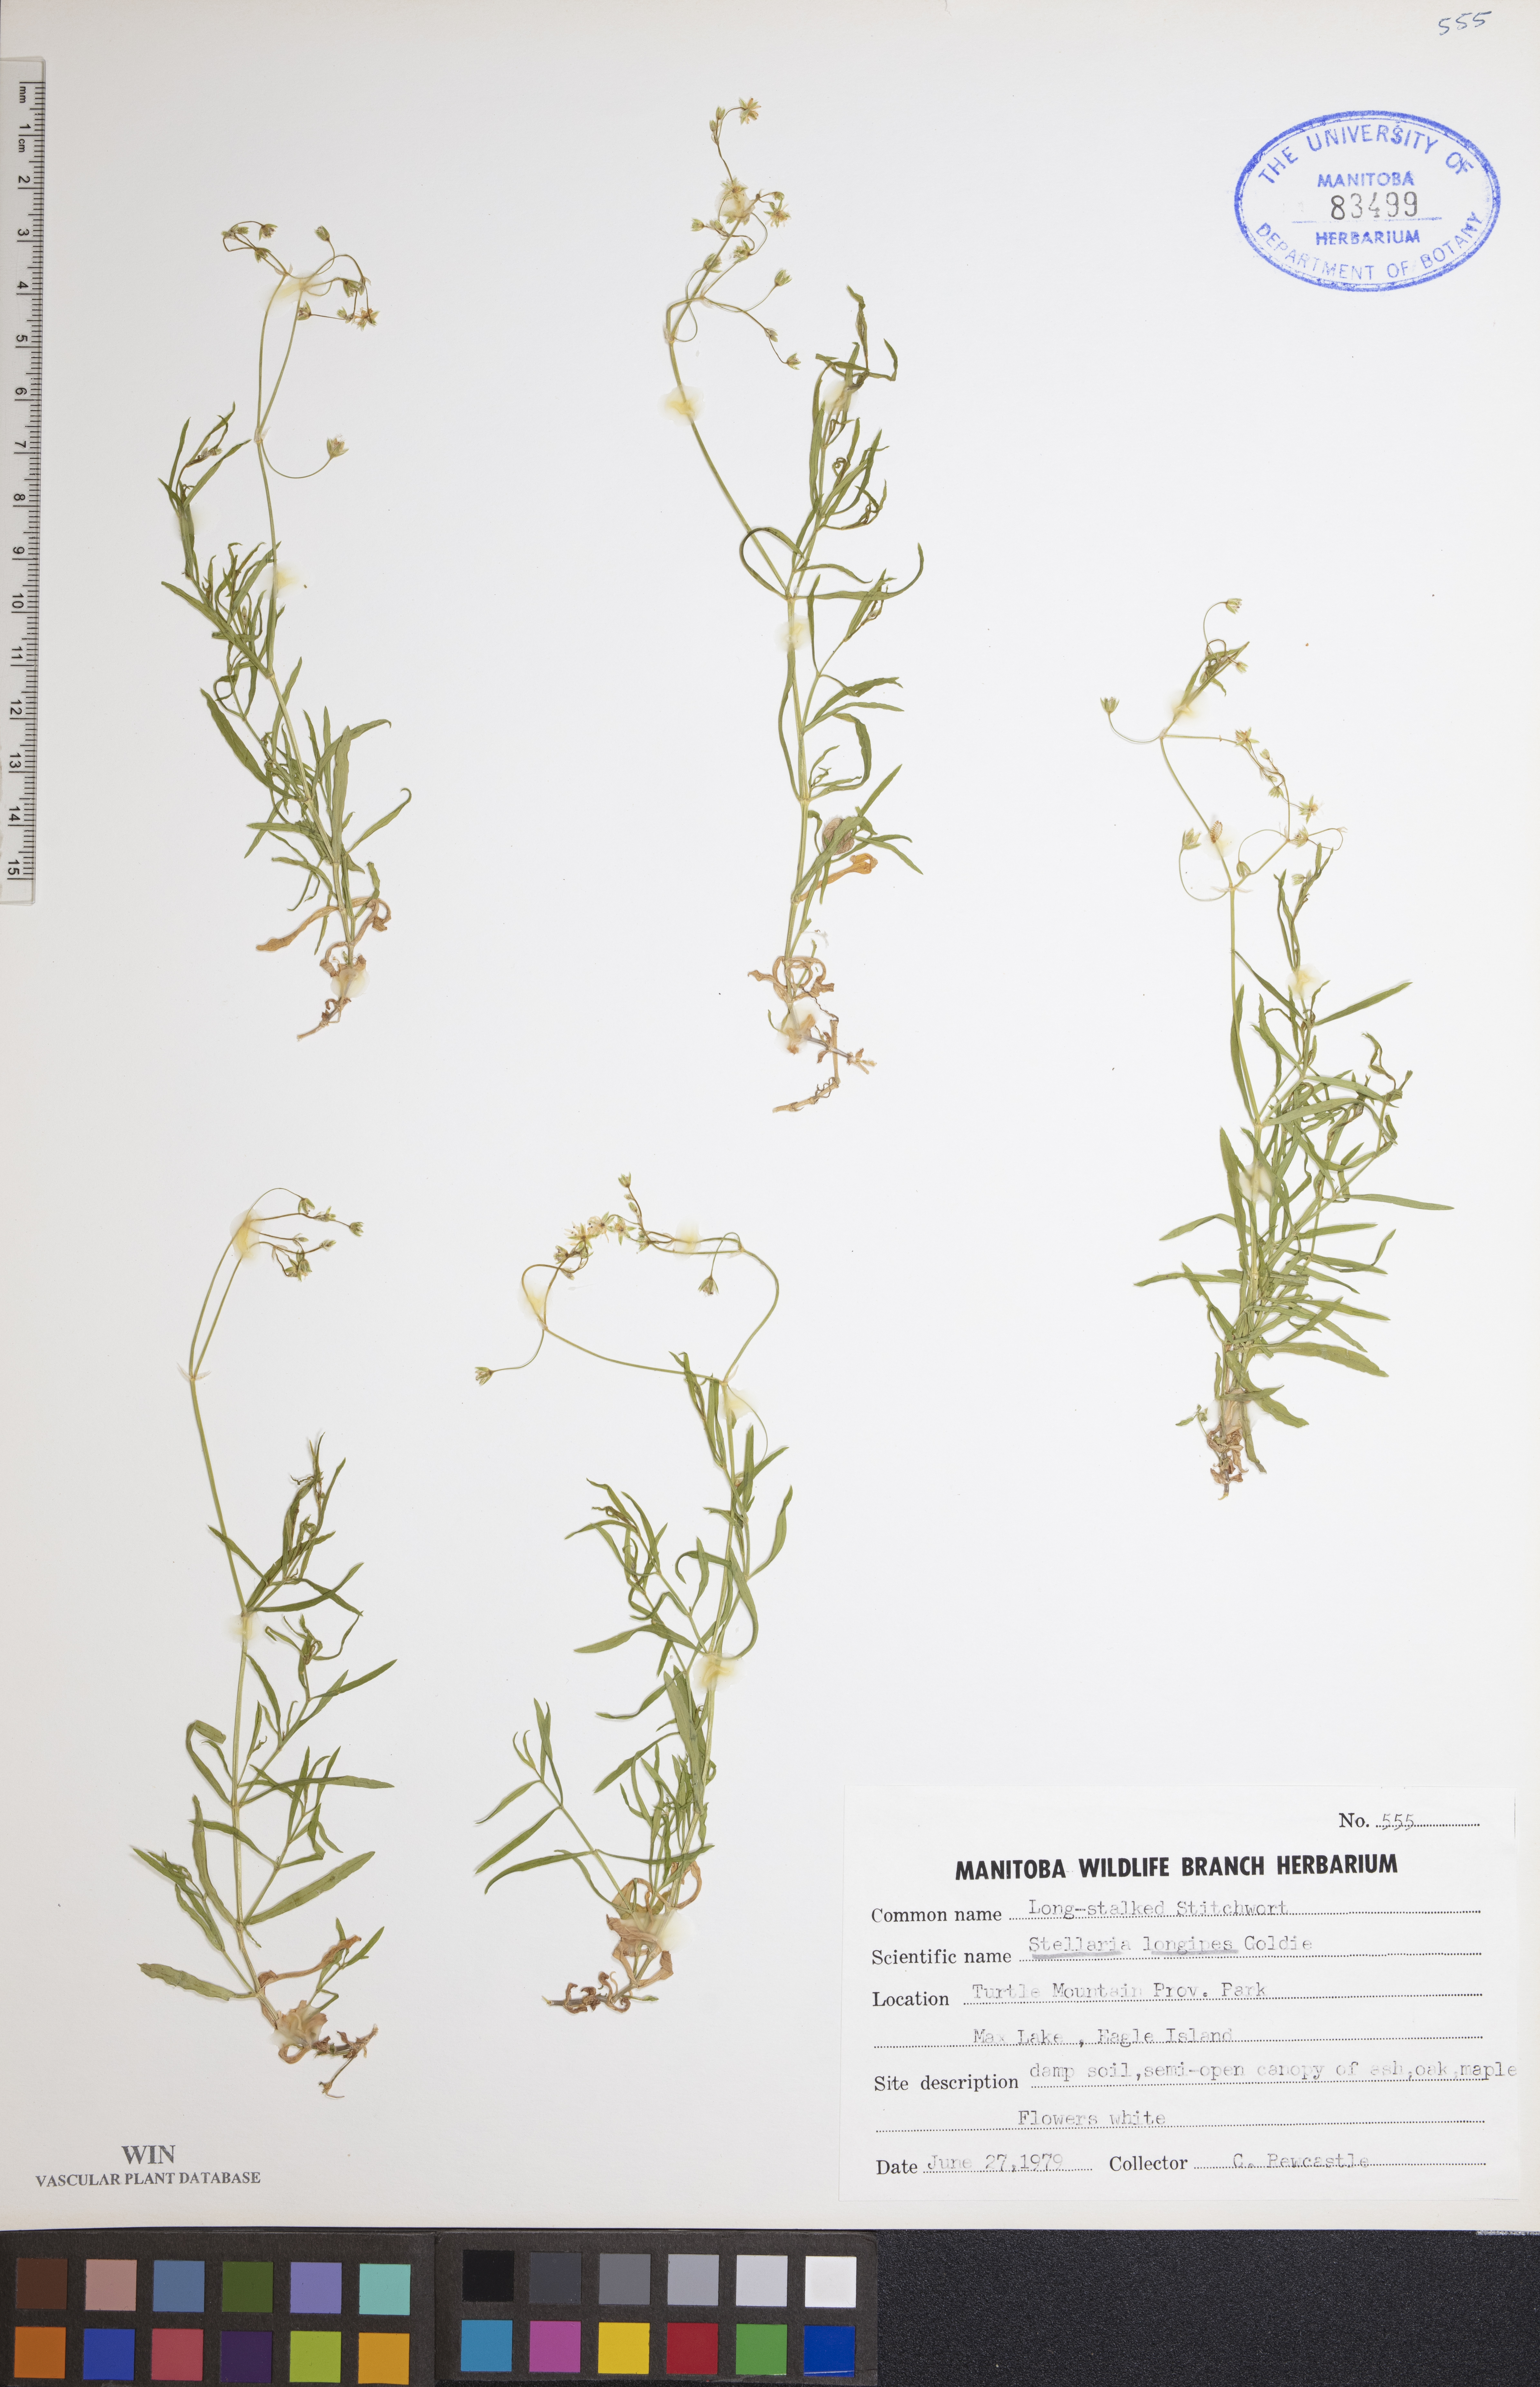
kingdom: Plantae
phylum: Tracheophyta
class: Magnoliopsida
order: Caryophyllales
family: Caryophyllaceae
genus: Stellaria
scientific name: Stellaria longipes
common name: Goldie's starwort
